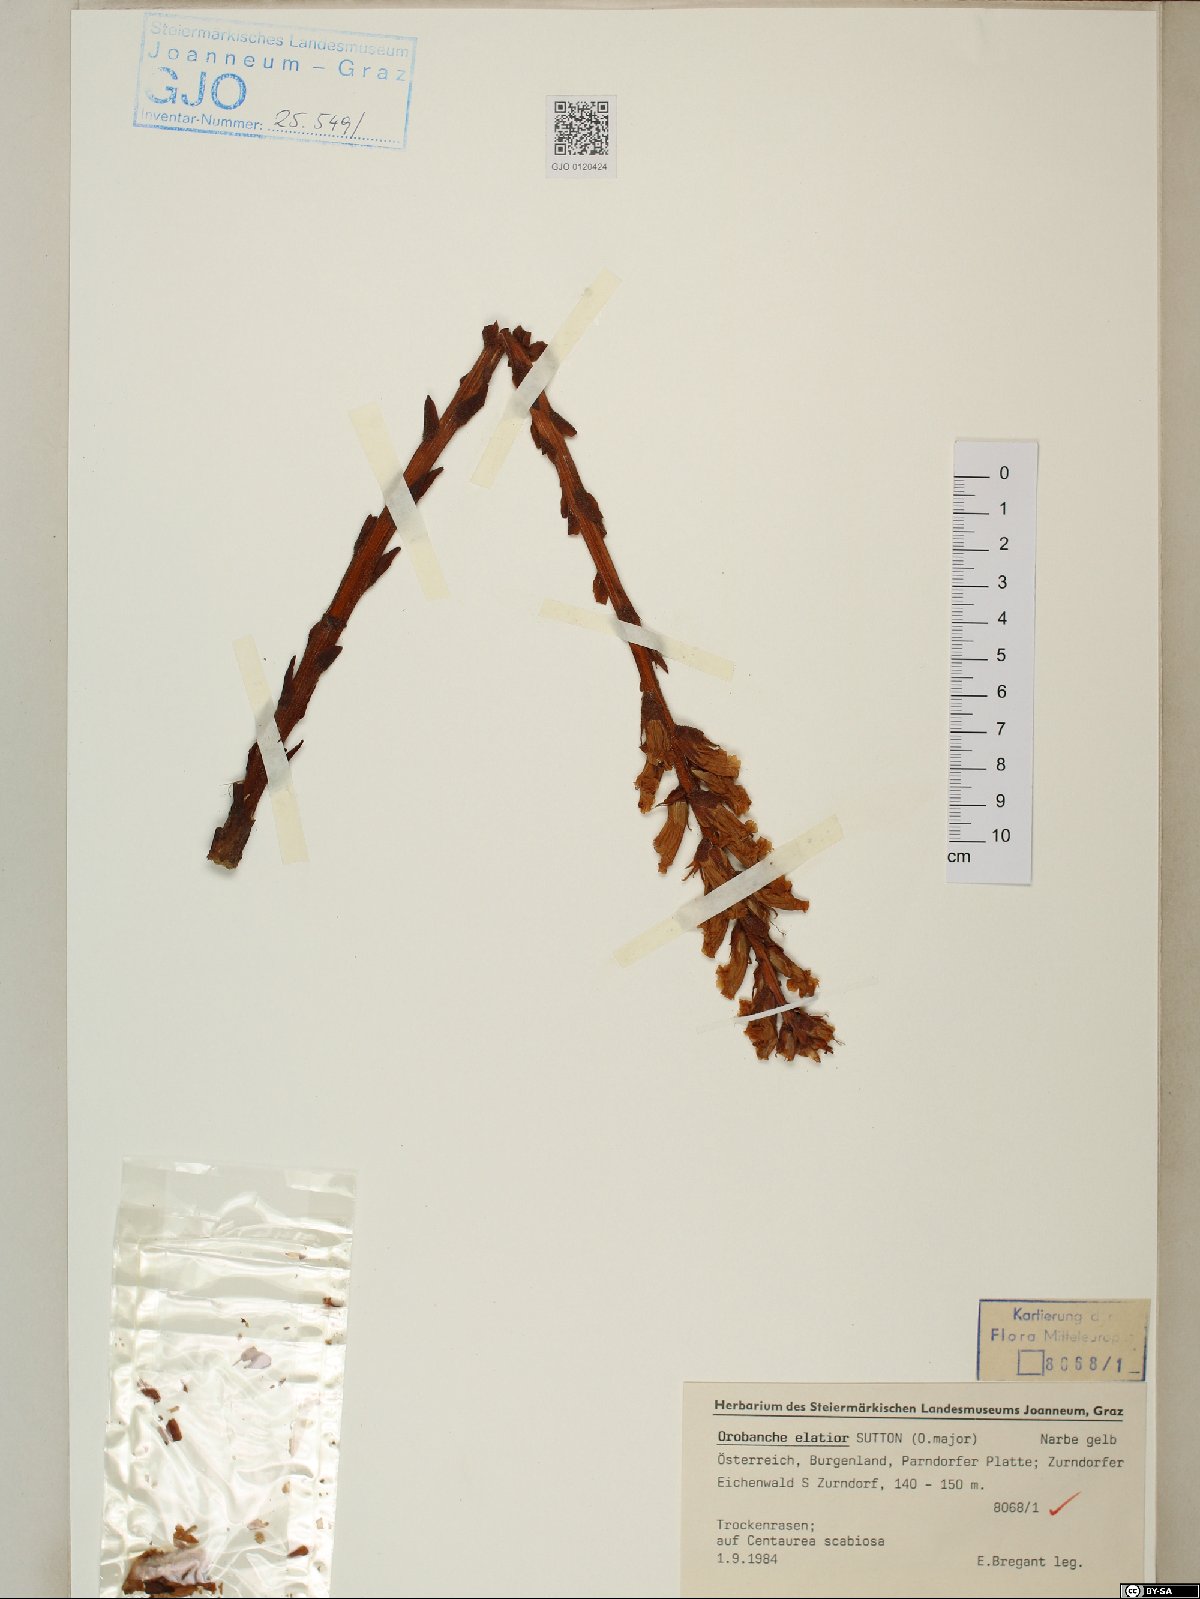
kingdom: Plantae
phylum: Tracheophyta
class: Magnoliopsida
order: Lamiales
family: Orobanchaceae
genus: Orobanche
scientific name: Orobanche elatior
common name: Knapweed broomrape
